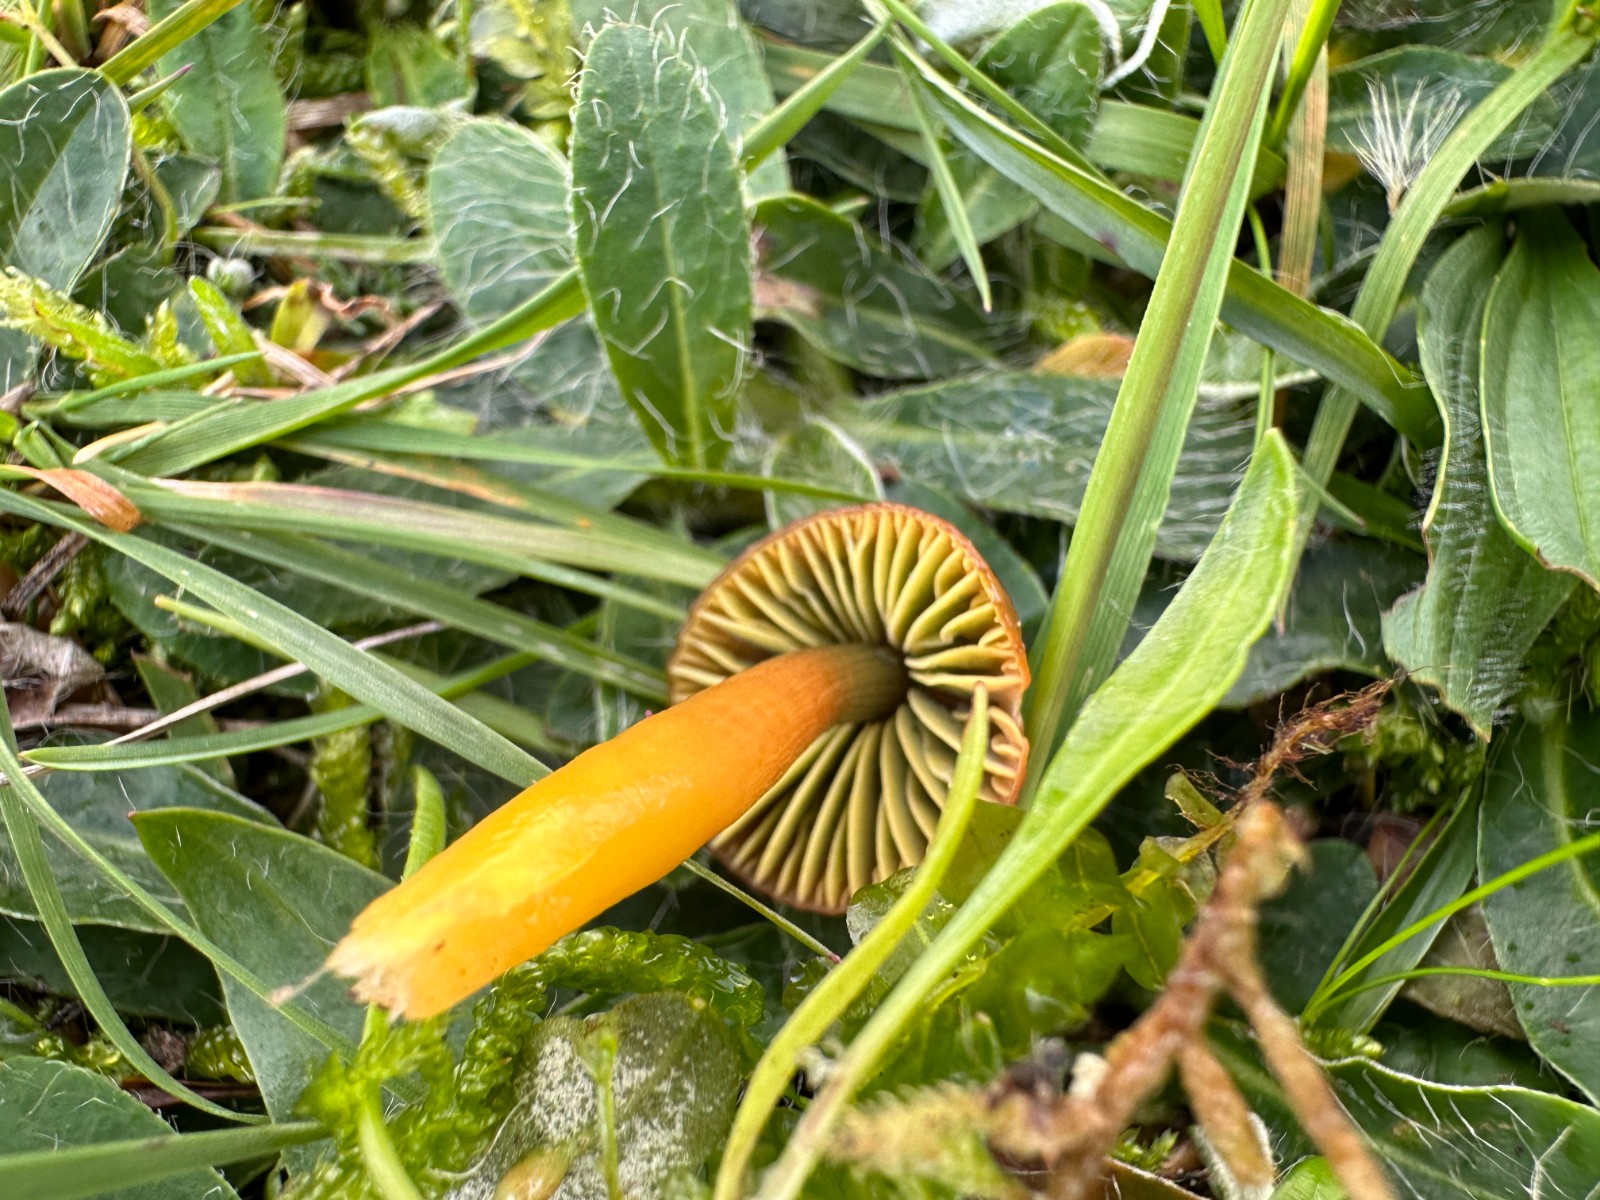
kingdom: Fungi
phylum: Basidiomycota
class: Agaricomycetes
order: Agaricales
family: Hygrophoraceae
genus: Gliophorus
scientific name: Gliophorus psittacinus
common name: papegøje-vokshat
